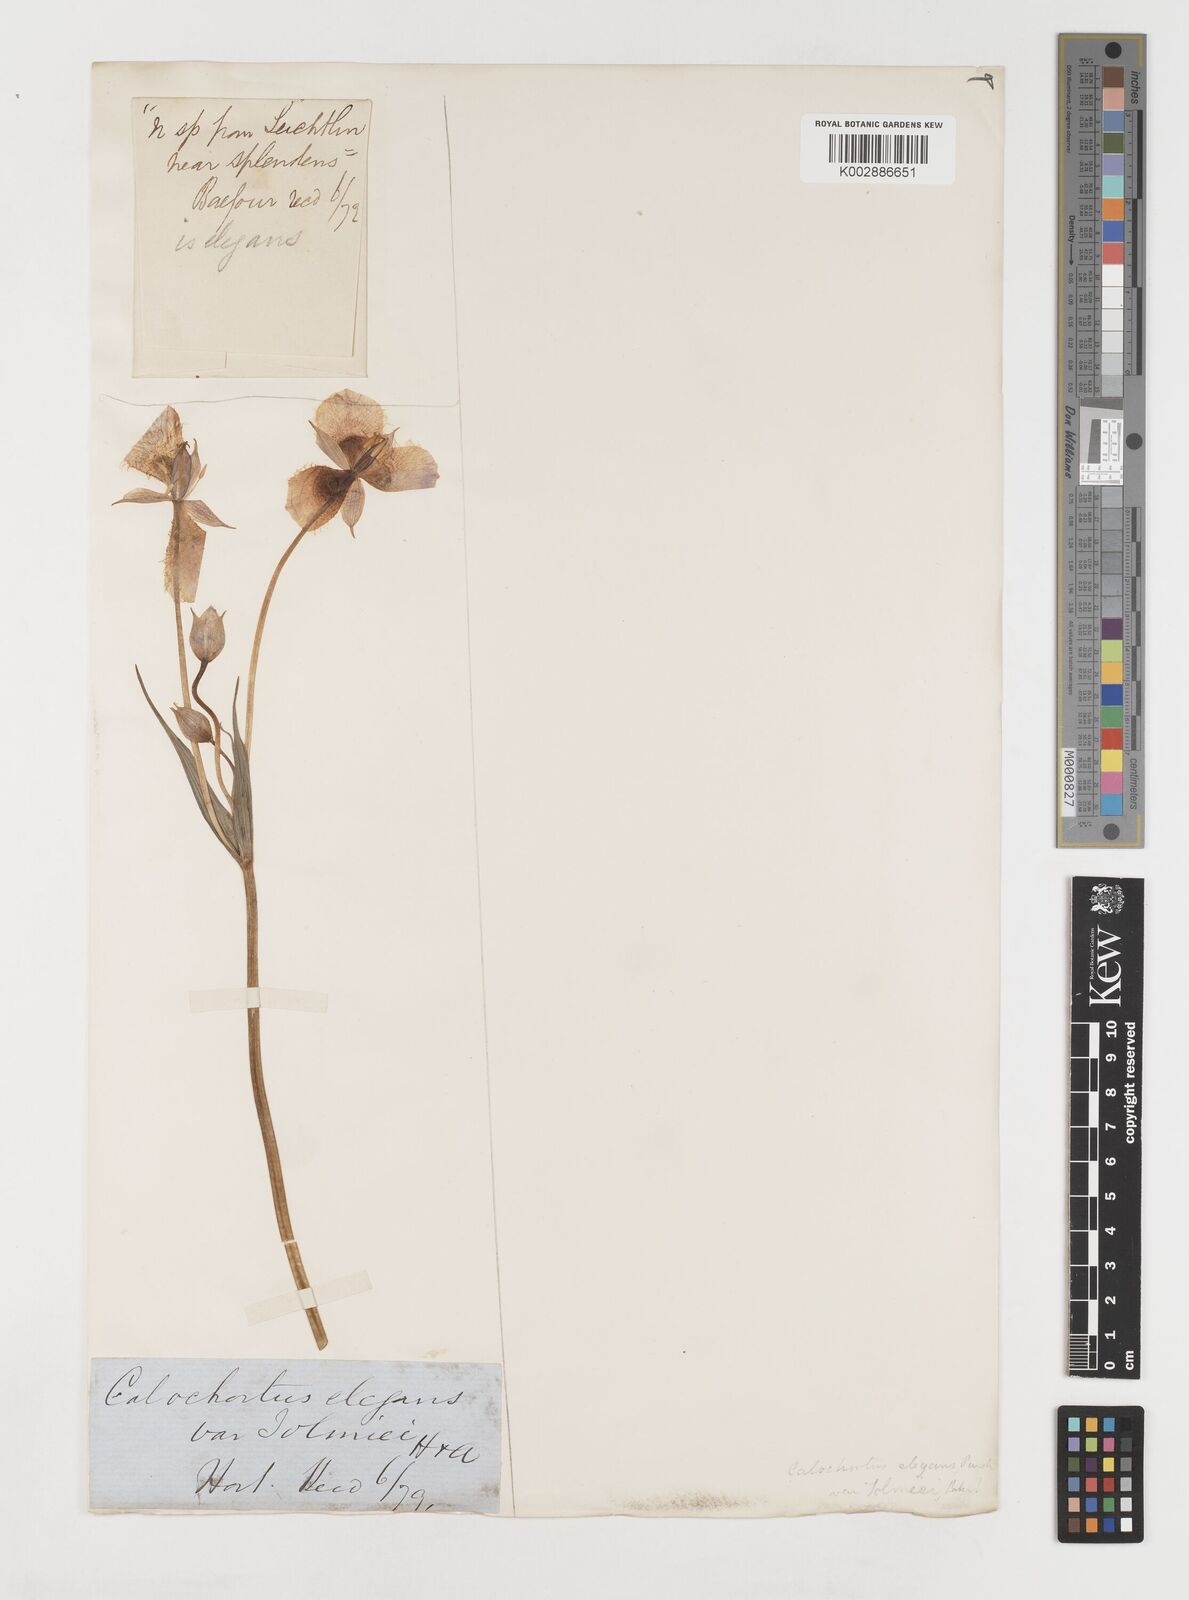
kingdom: Plantae
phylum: Tracheophyta
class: Liliopsida
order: Liliales
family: Liliaceae
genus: Calochortus
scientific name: Calochortus tolmiei
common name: Pussy-ears
